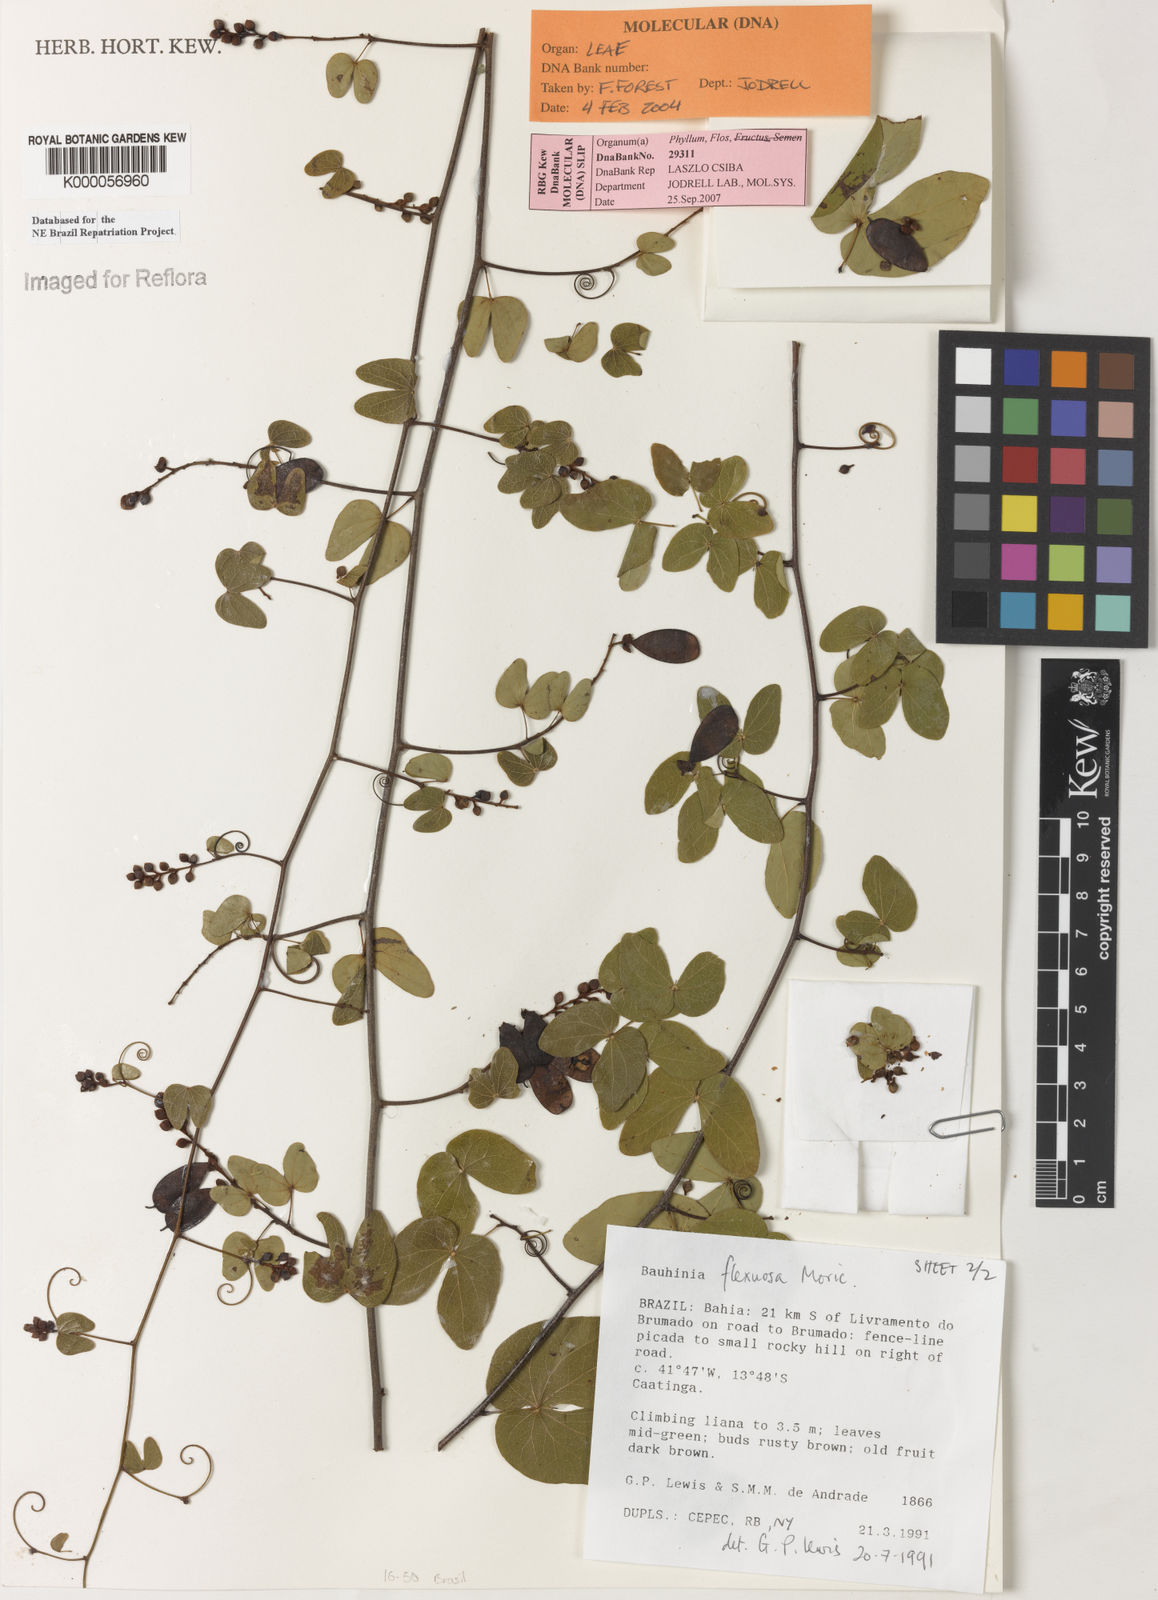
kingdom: Plantae
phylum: Tracheophyta
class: Magnoliopsida
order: Fabales
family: Fabaceae
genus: Schnella
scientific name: Schnella flexuosa
